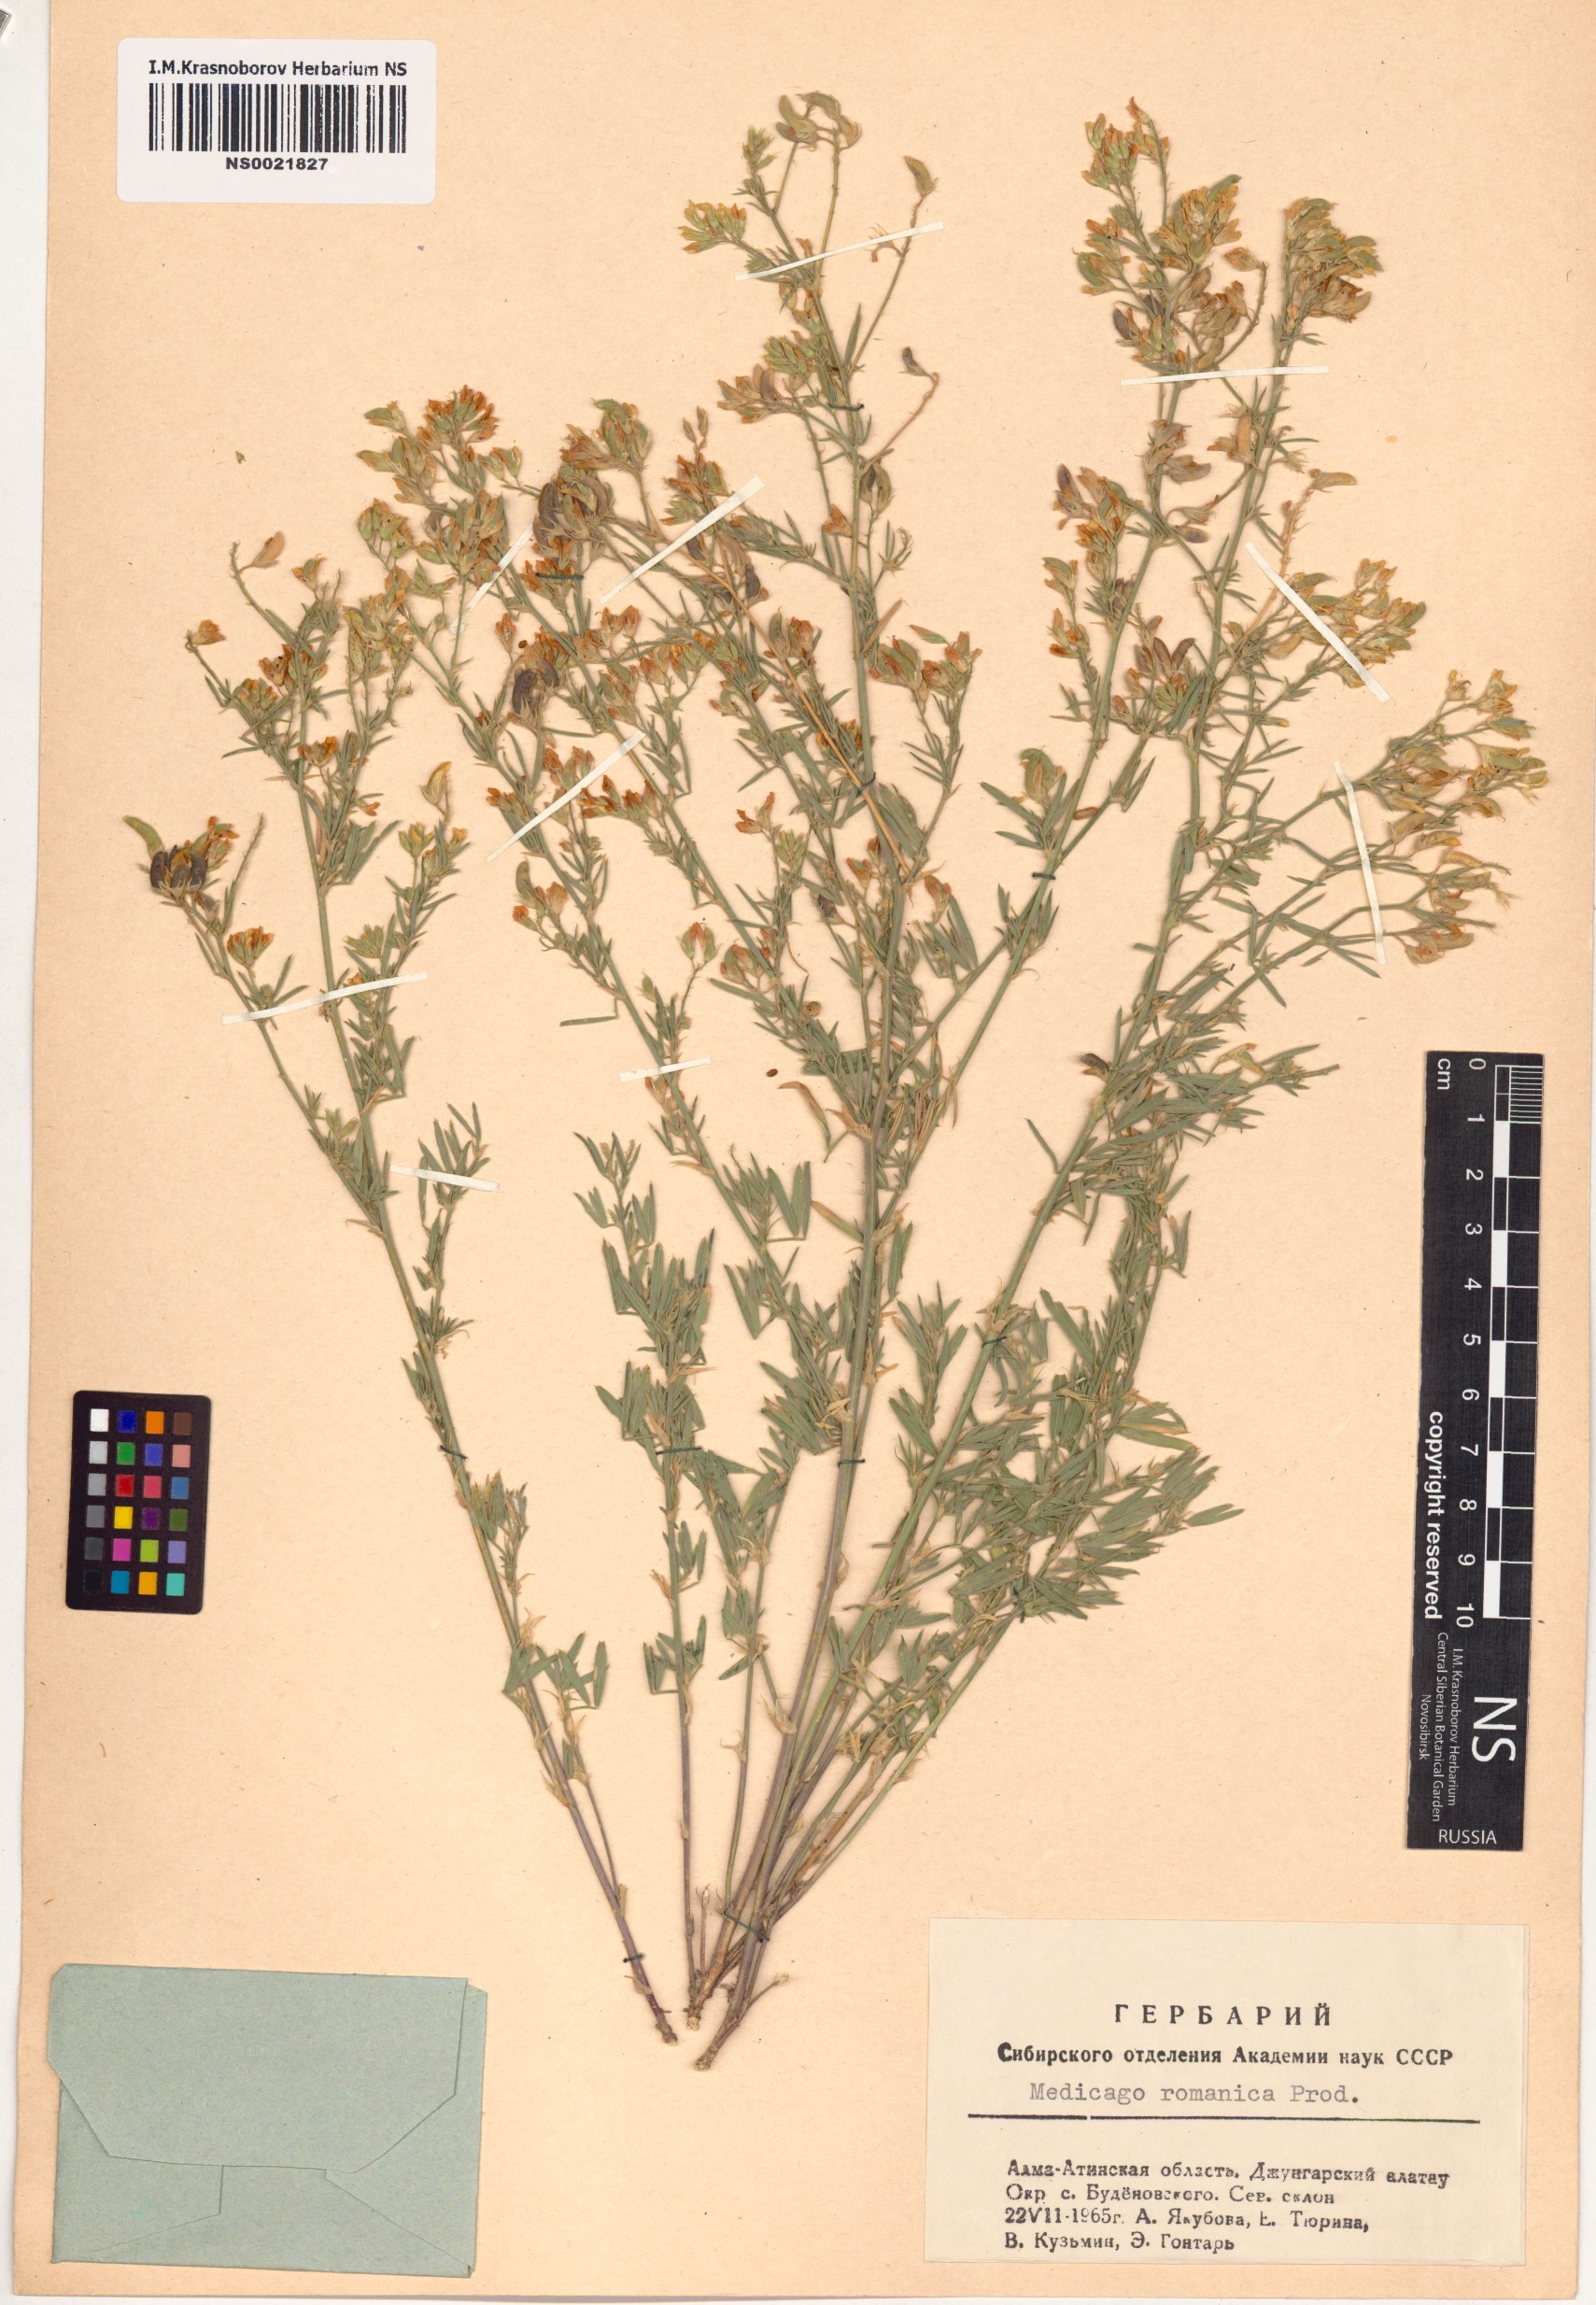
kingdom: Plantae
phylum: Tracheophyta
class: Magnoliopsida
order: Fabales
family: Fabaceae
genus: Medicago
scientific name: Medicago falcata
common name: Sickle medick
